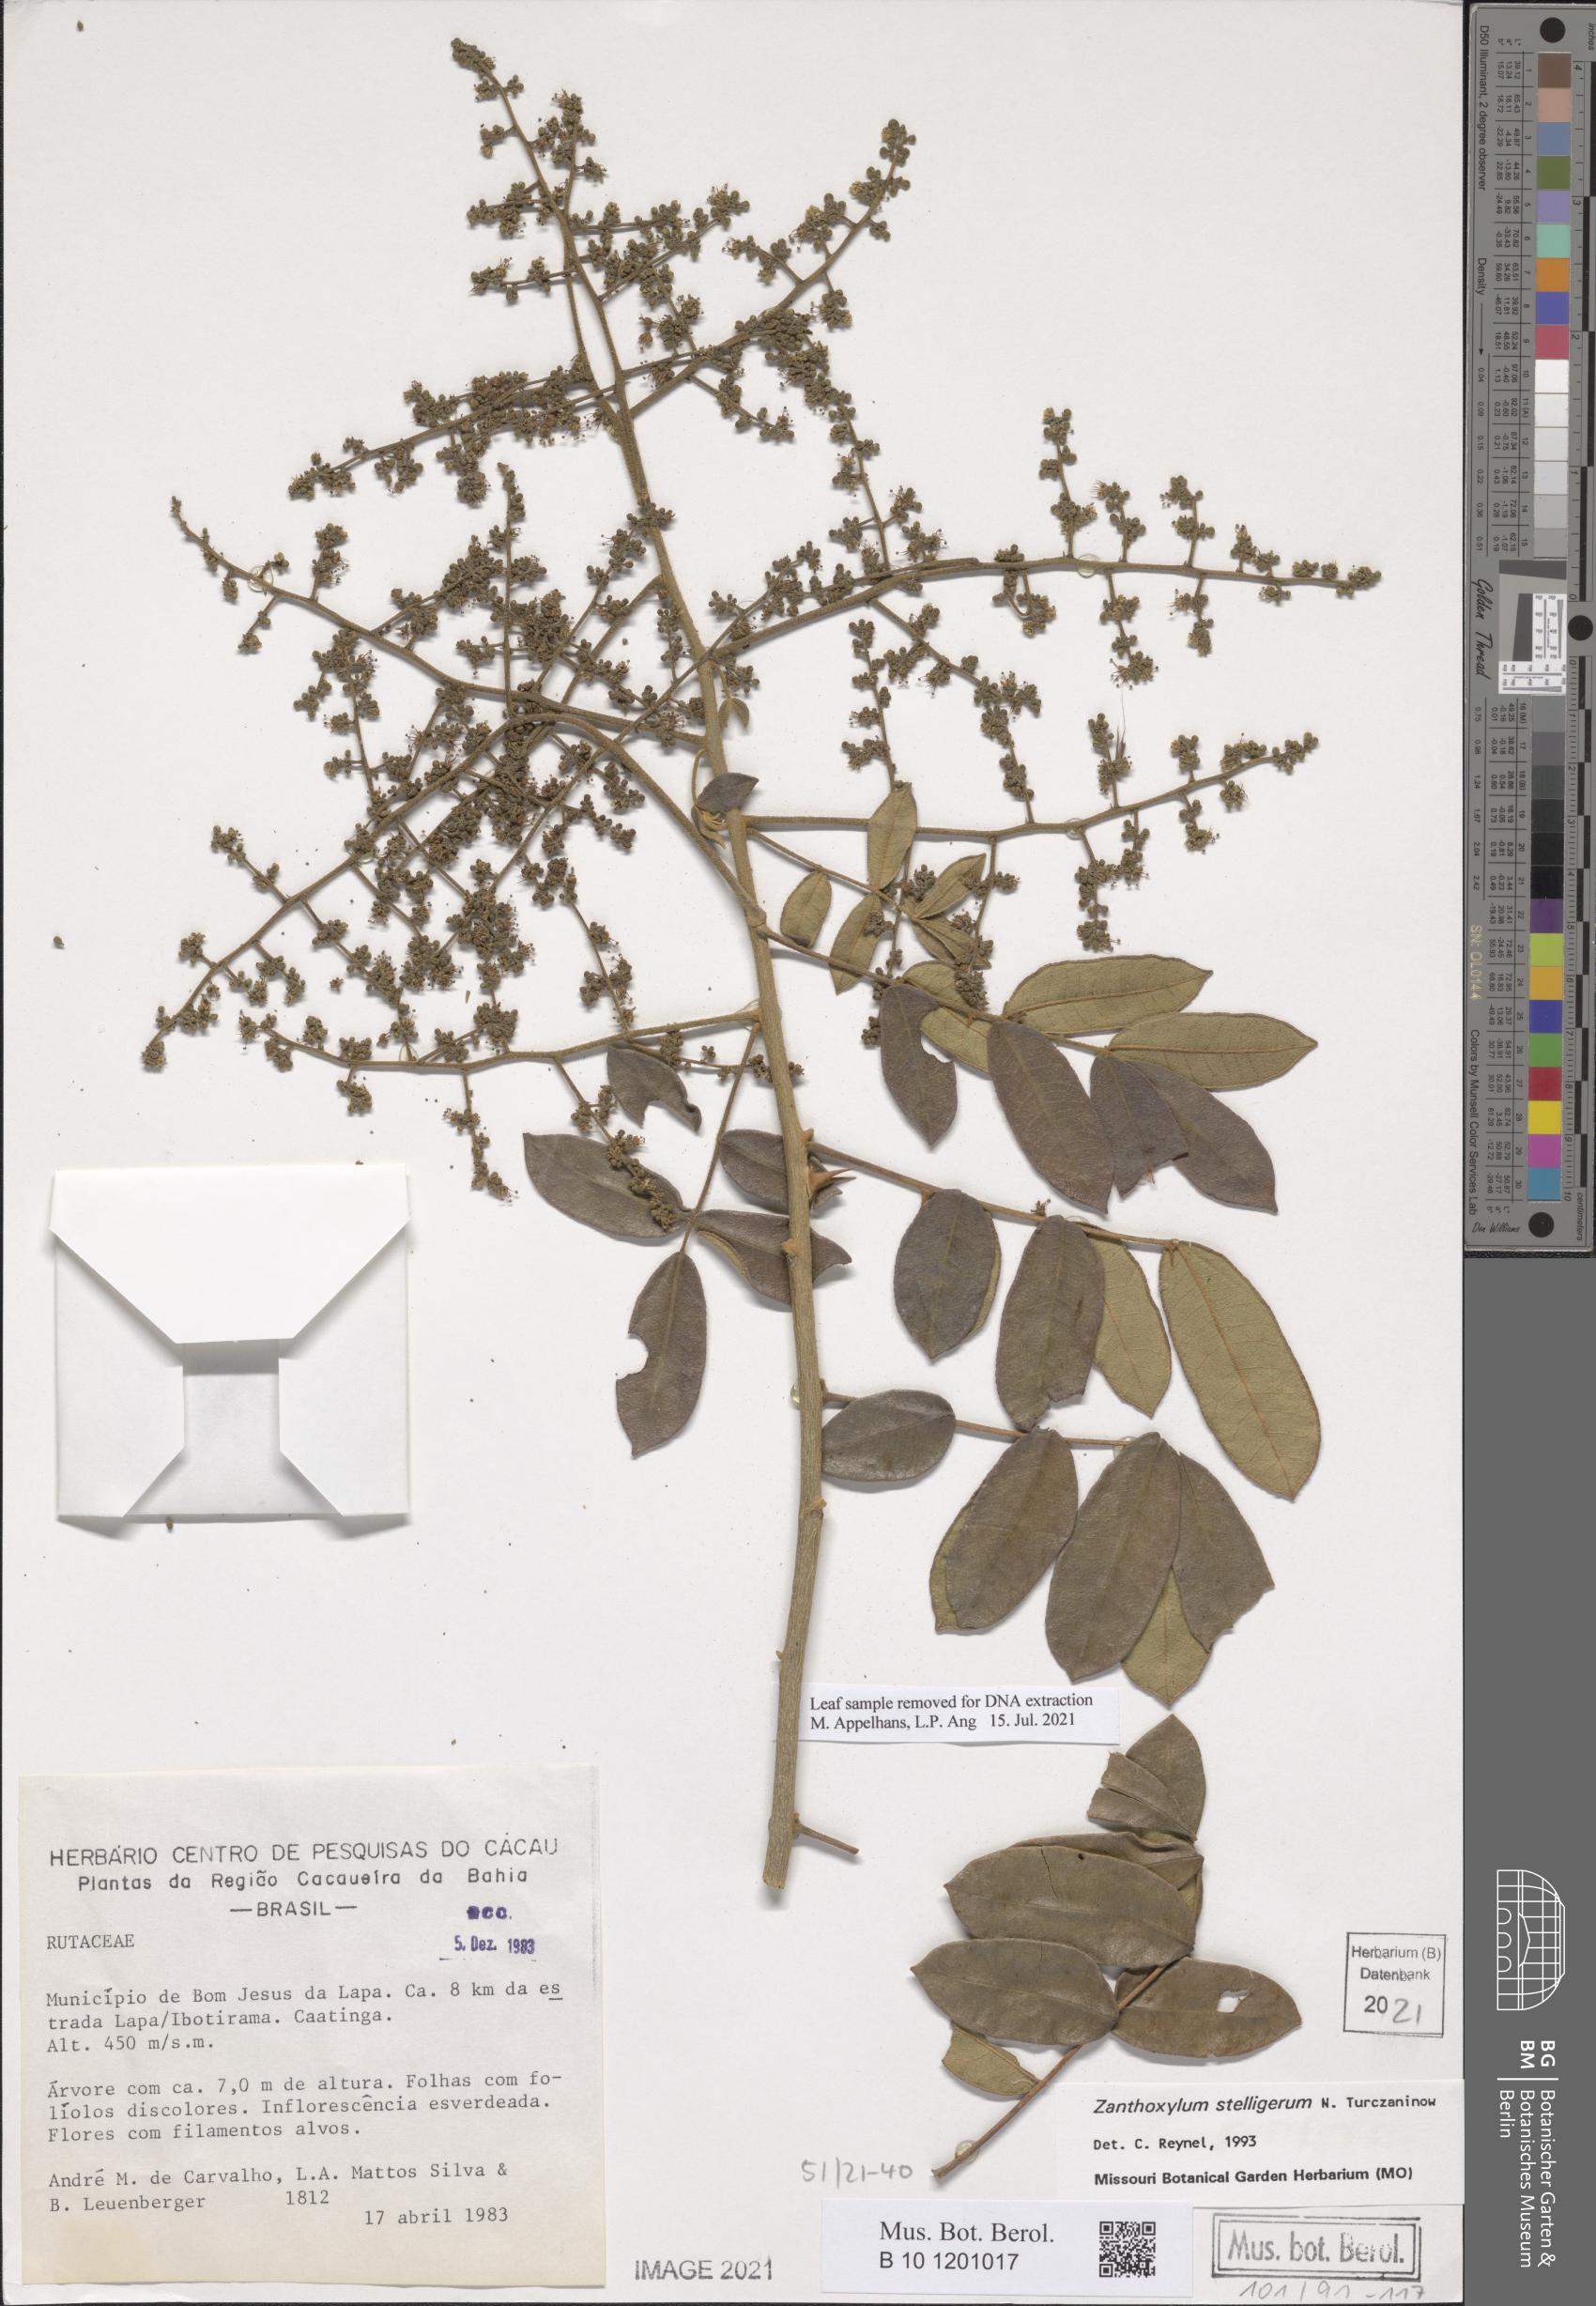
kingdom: Plantae
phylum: Tracheophyta
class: Magnoliopsida
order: Sapindales
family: Rutaceae
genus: Zanthoxylum
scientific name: Zanthoxylum stelligerum
